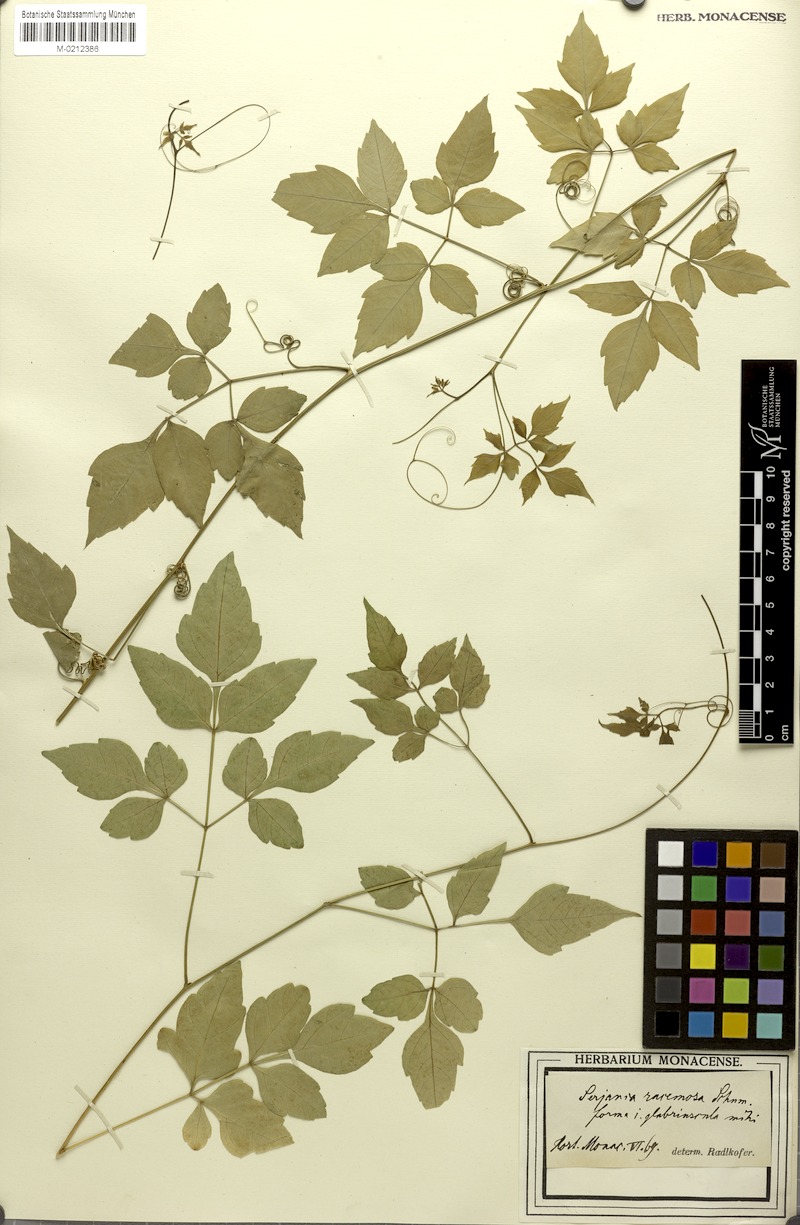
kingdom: Plantae
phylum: Tracheophyta
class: Magnoliopsida
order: Sapindales
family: Sapindaceae
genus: Serjania
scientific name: Serjania racemosa
